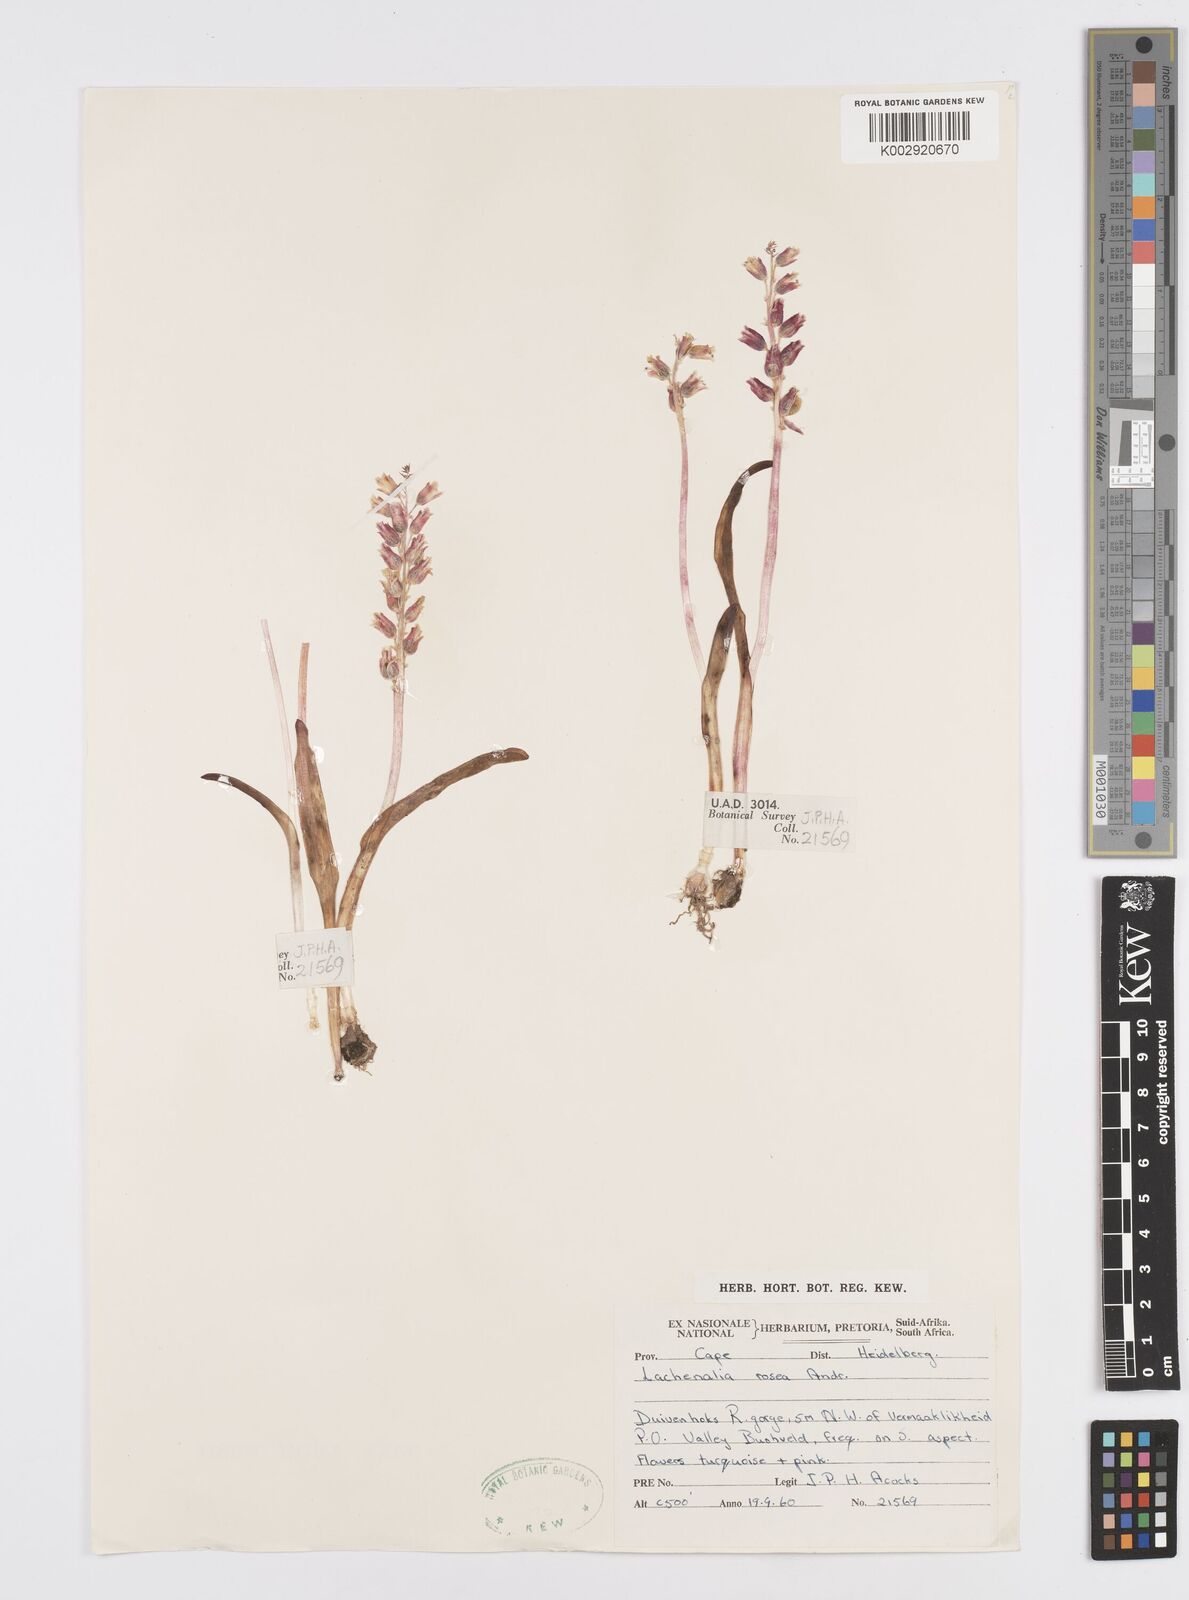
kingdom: Plantae
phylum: Tracheophyta
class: Liliopsida
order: Asparagales
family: Asparagaceae
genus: Lachenalia
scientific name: Lachenalia rosea
